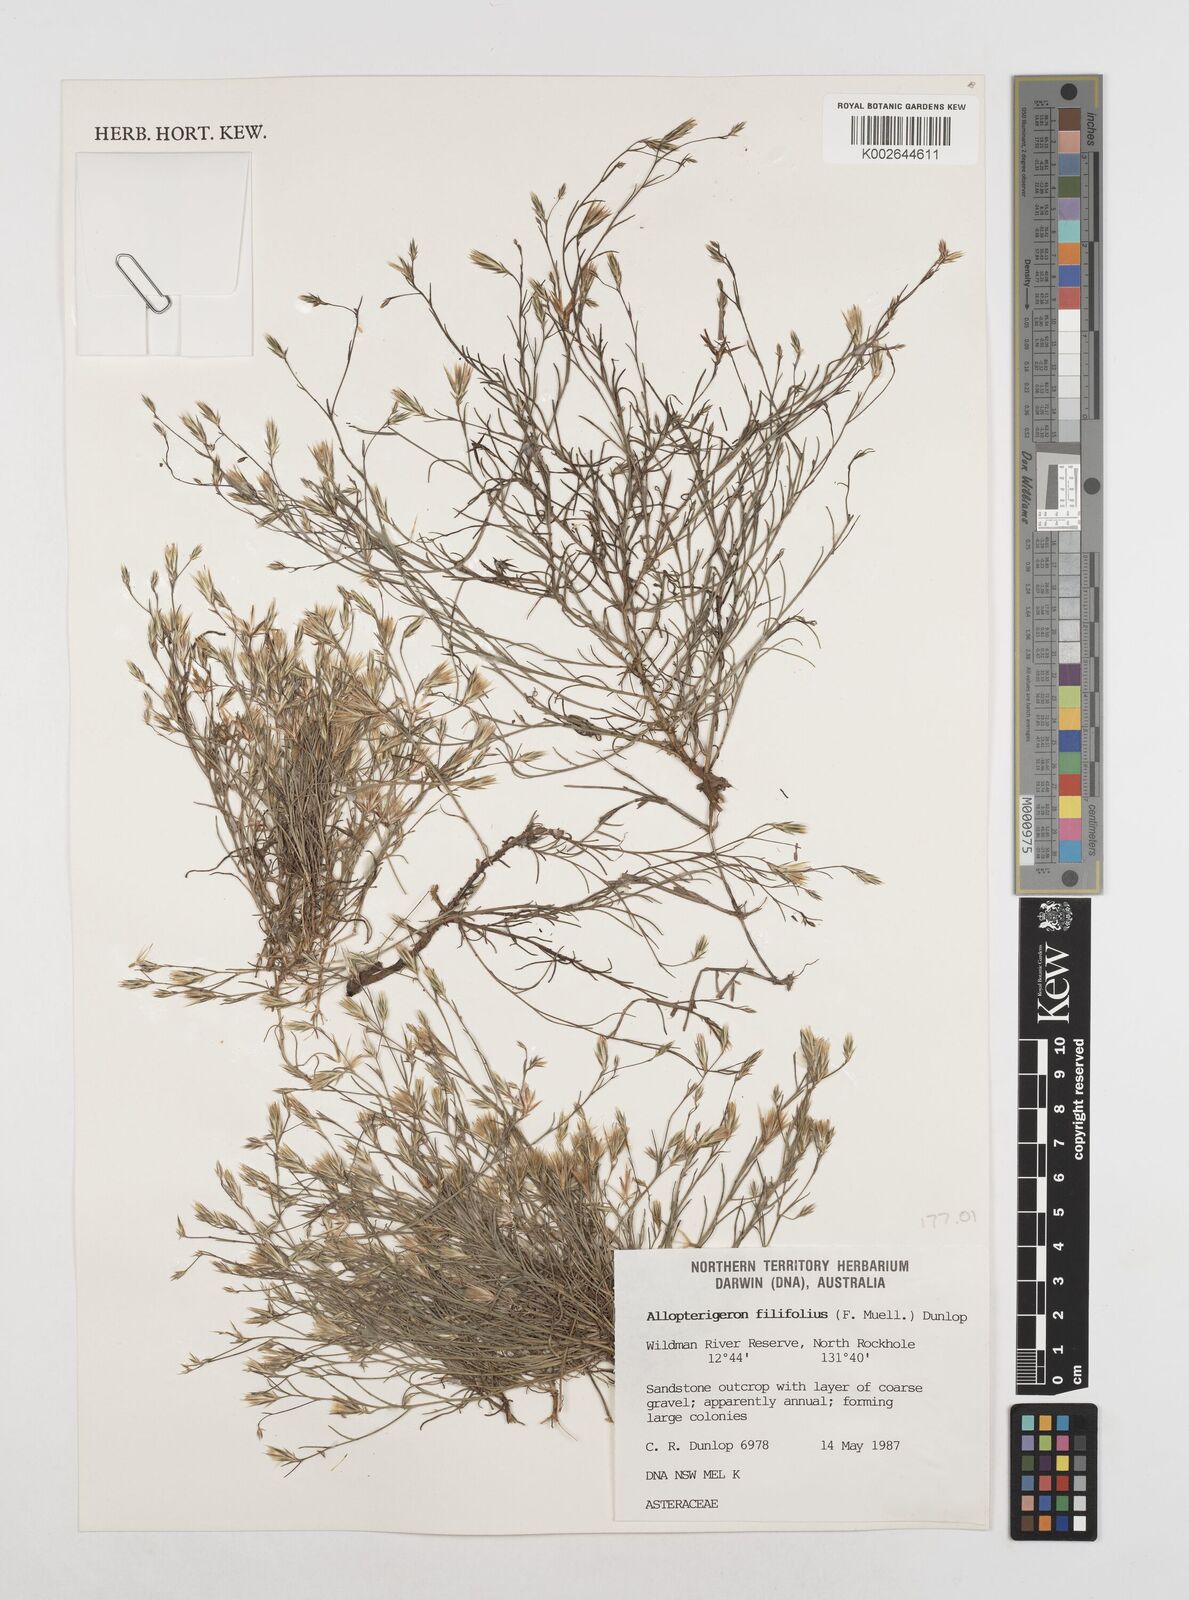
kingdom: Plantae
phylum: Tracheophyta
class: Magnoliopsida
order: Asterales
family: Asteraceae
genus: Allopterigeron
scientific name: Allopterigeron filifolius
